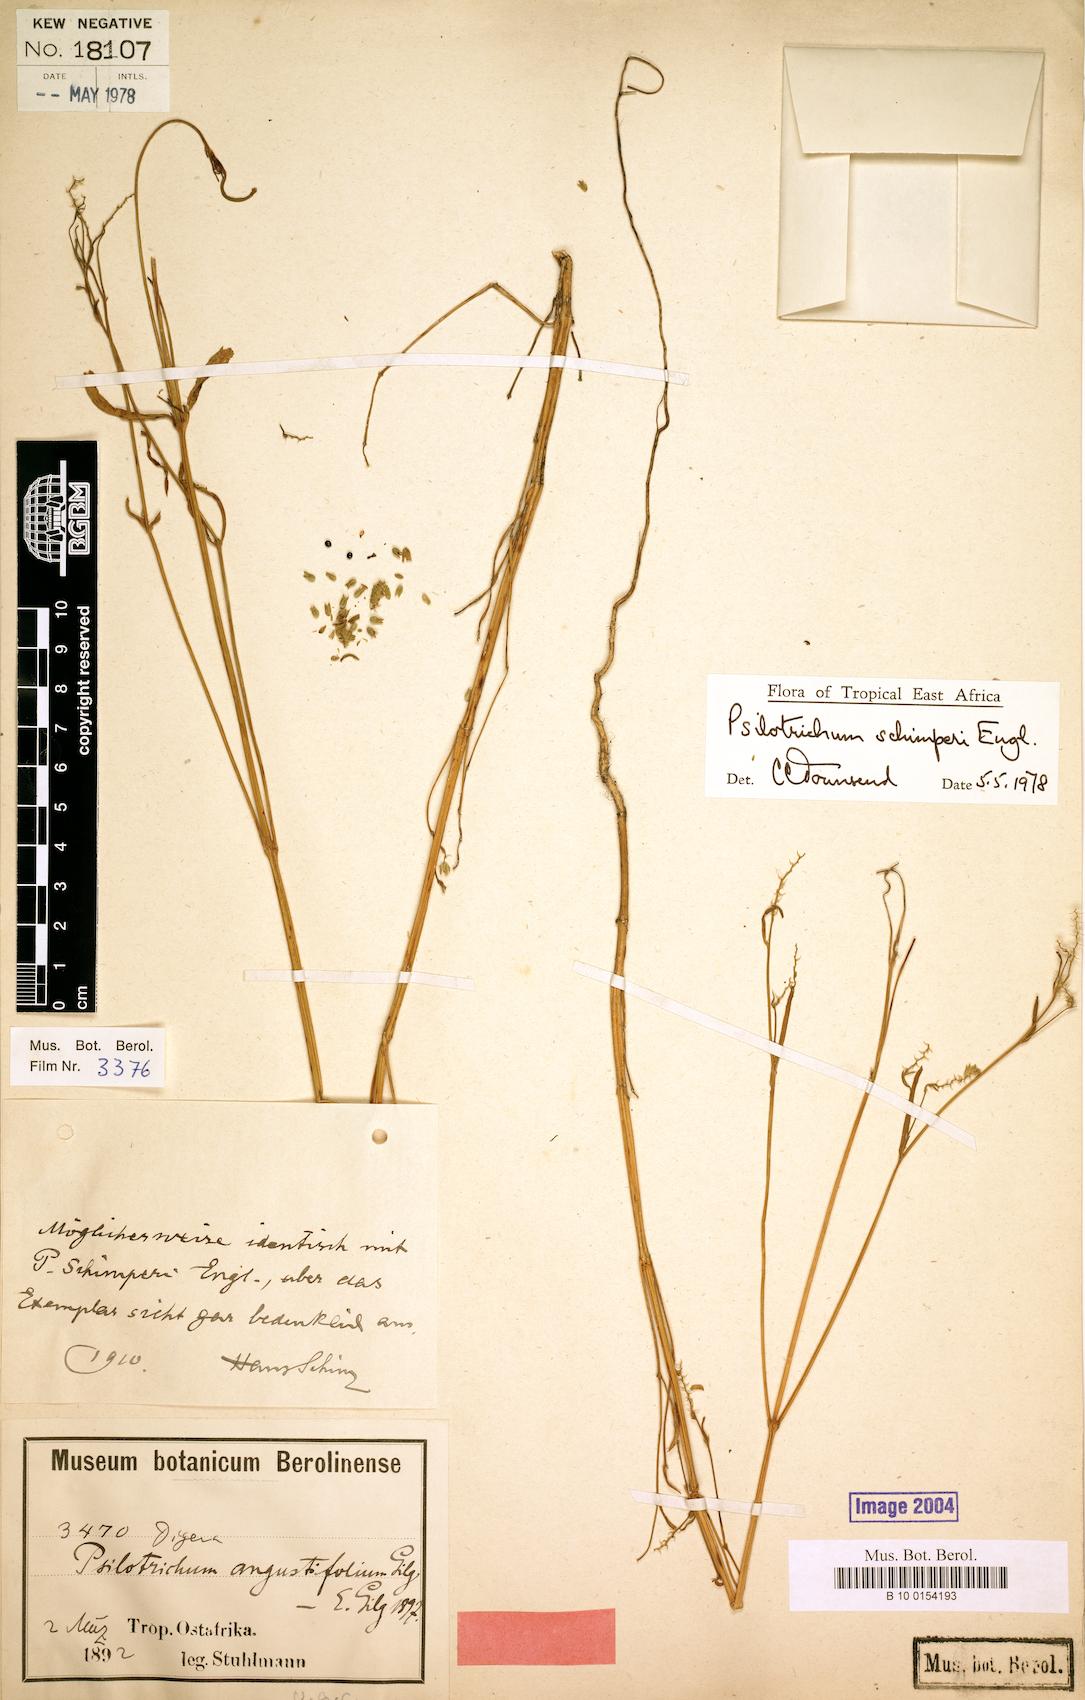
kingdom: Plantae
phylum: Tracheophyta
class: Magnoliopsida
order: Caryophyllales
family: Amaranthaceae
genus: Psilotrichum
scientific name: Psilotrichum schimperi
